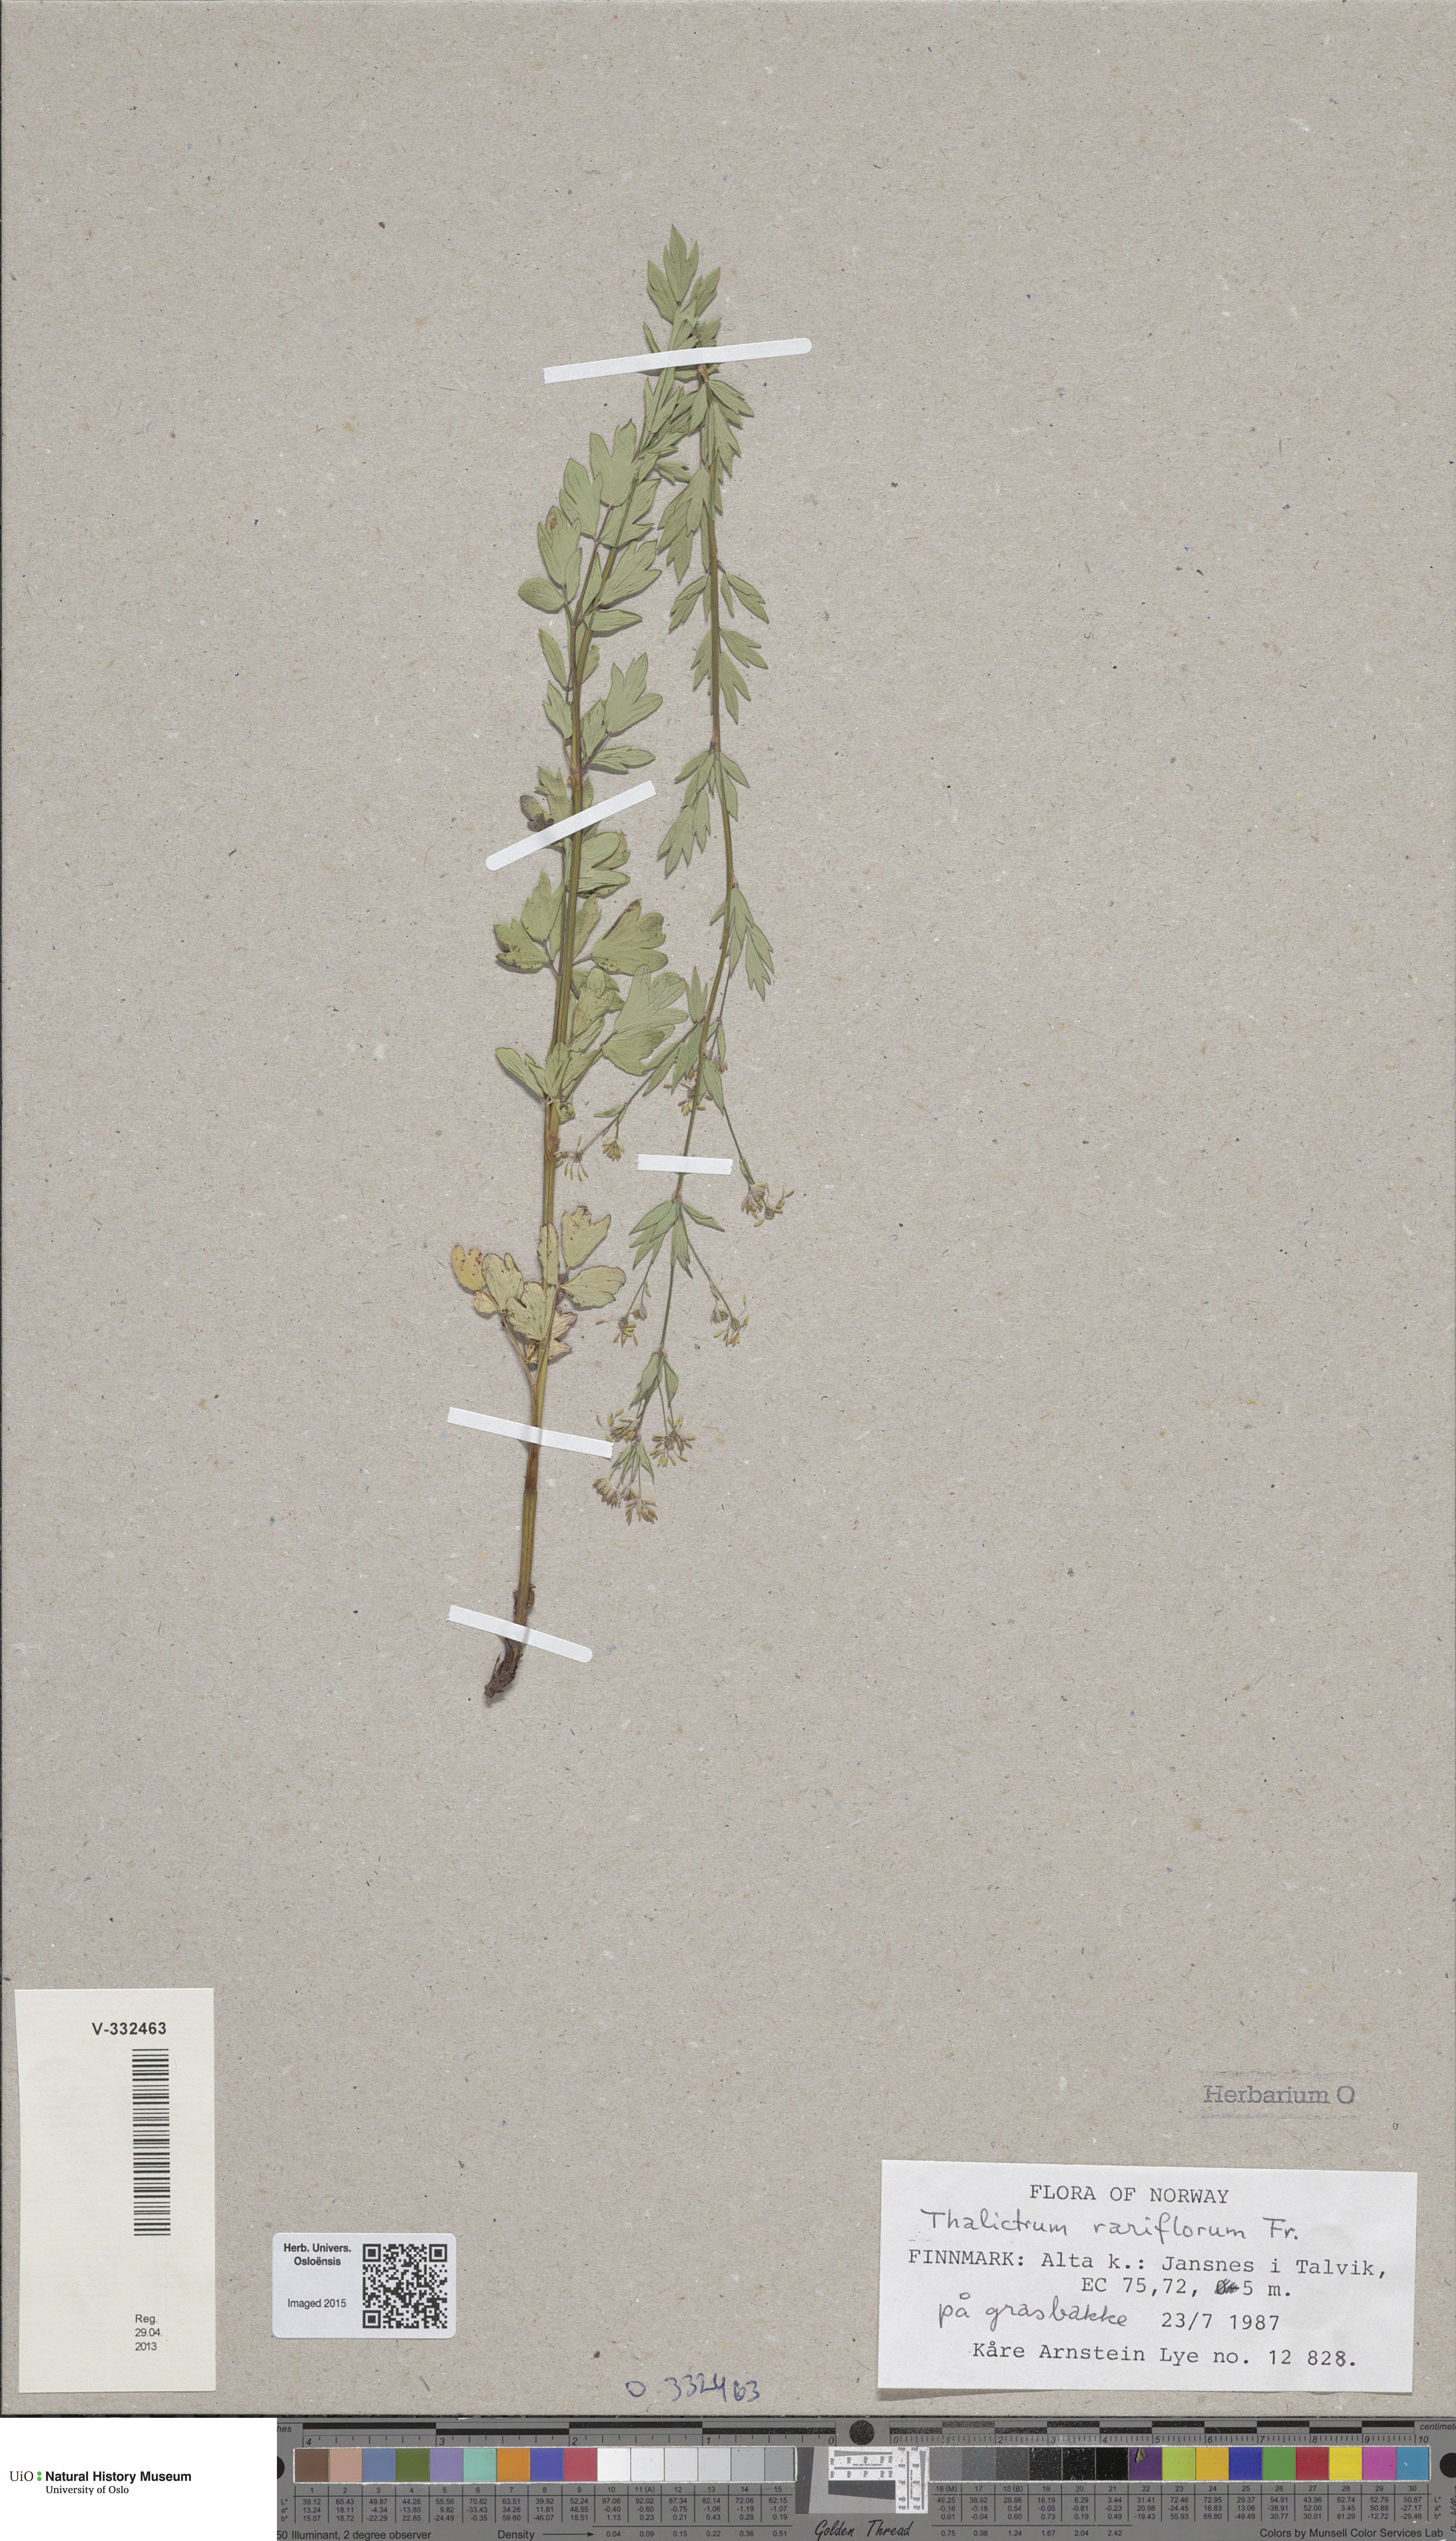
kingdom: Plantae
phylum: Tracheophyta
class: Magnoliopsida
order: Ranunculales
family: Ranunculaceae
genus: Thalictrum
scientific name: Thalictrum simplex
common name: Small meadow-rue
